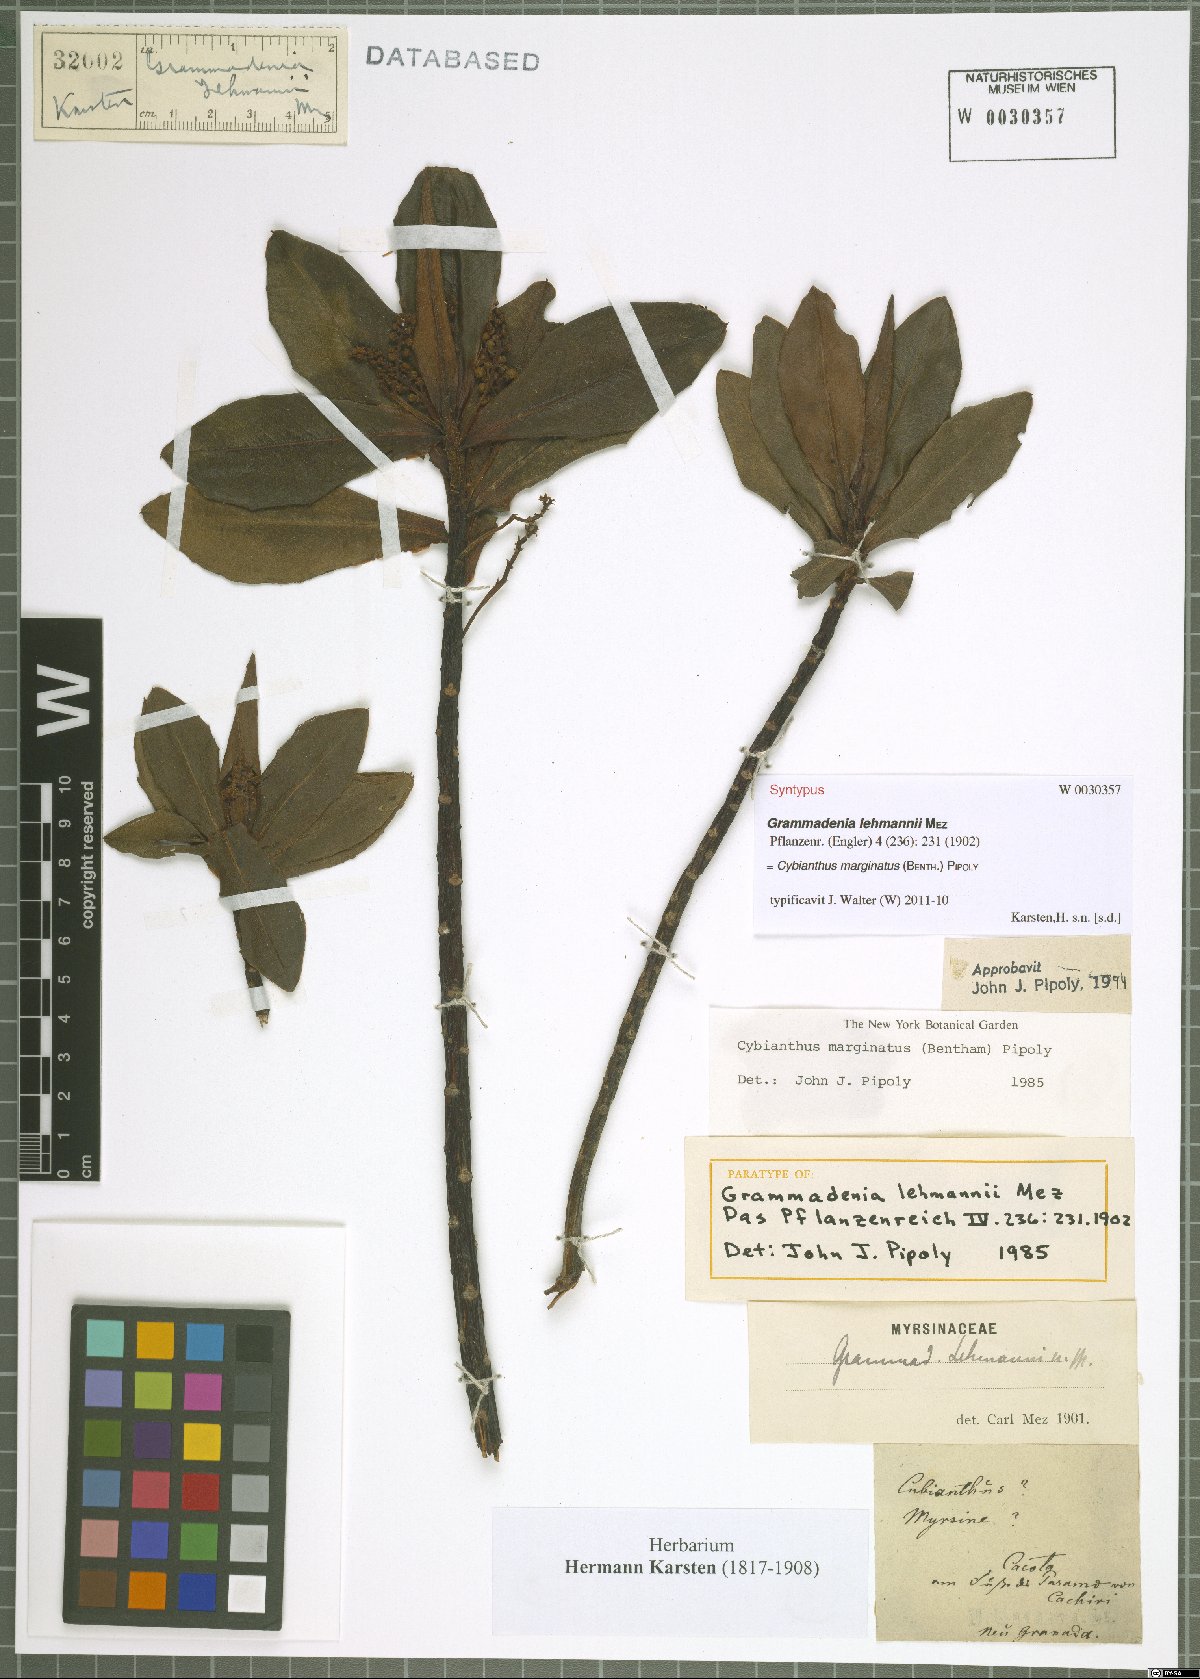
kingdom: Plantae
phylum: Tracheophyta
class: Magnoliopsida
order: Ericales
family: Primulaceae
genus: Cybianthus
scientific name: Cybianthus marginatus
